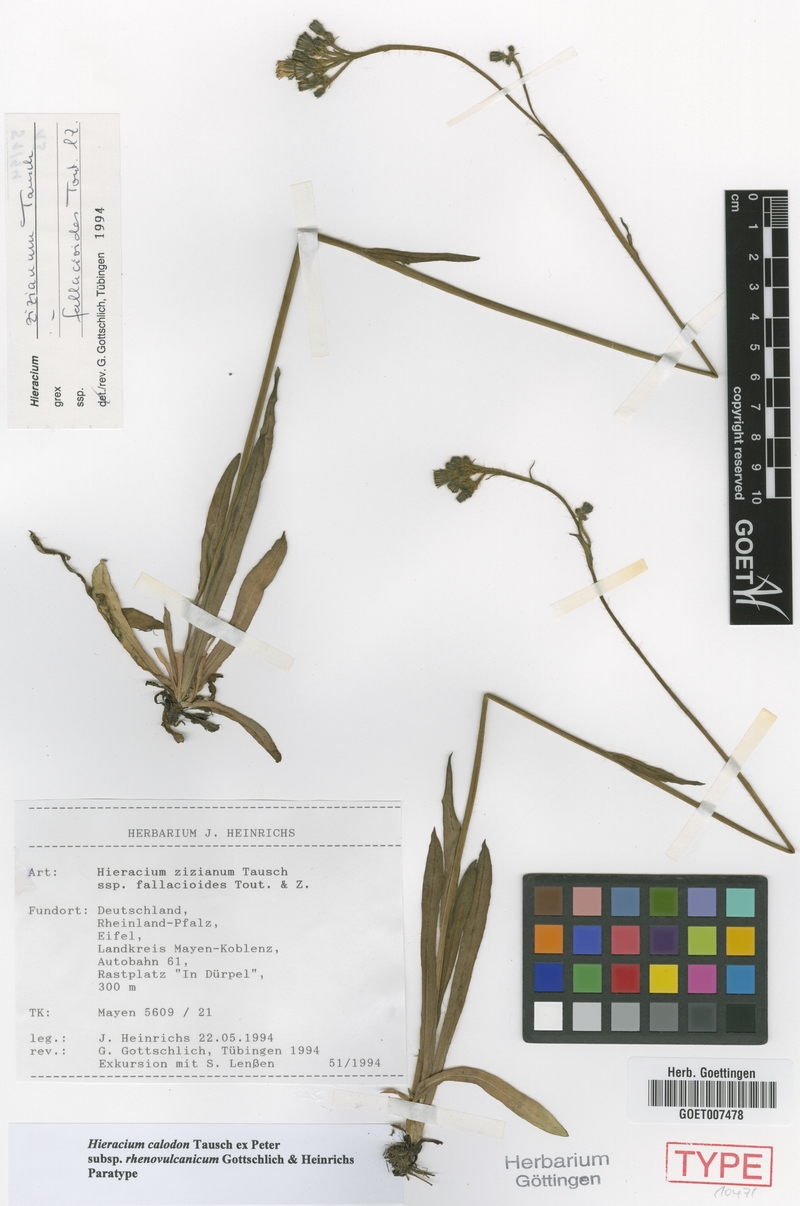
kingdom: Plantae
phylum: Tracheophyta
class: Magnoliopsida
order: Asterales
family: Asteraceae
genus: Pilosella
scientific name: Pilosella calodon
